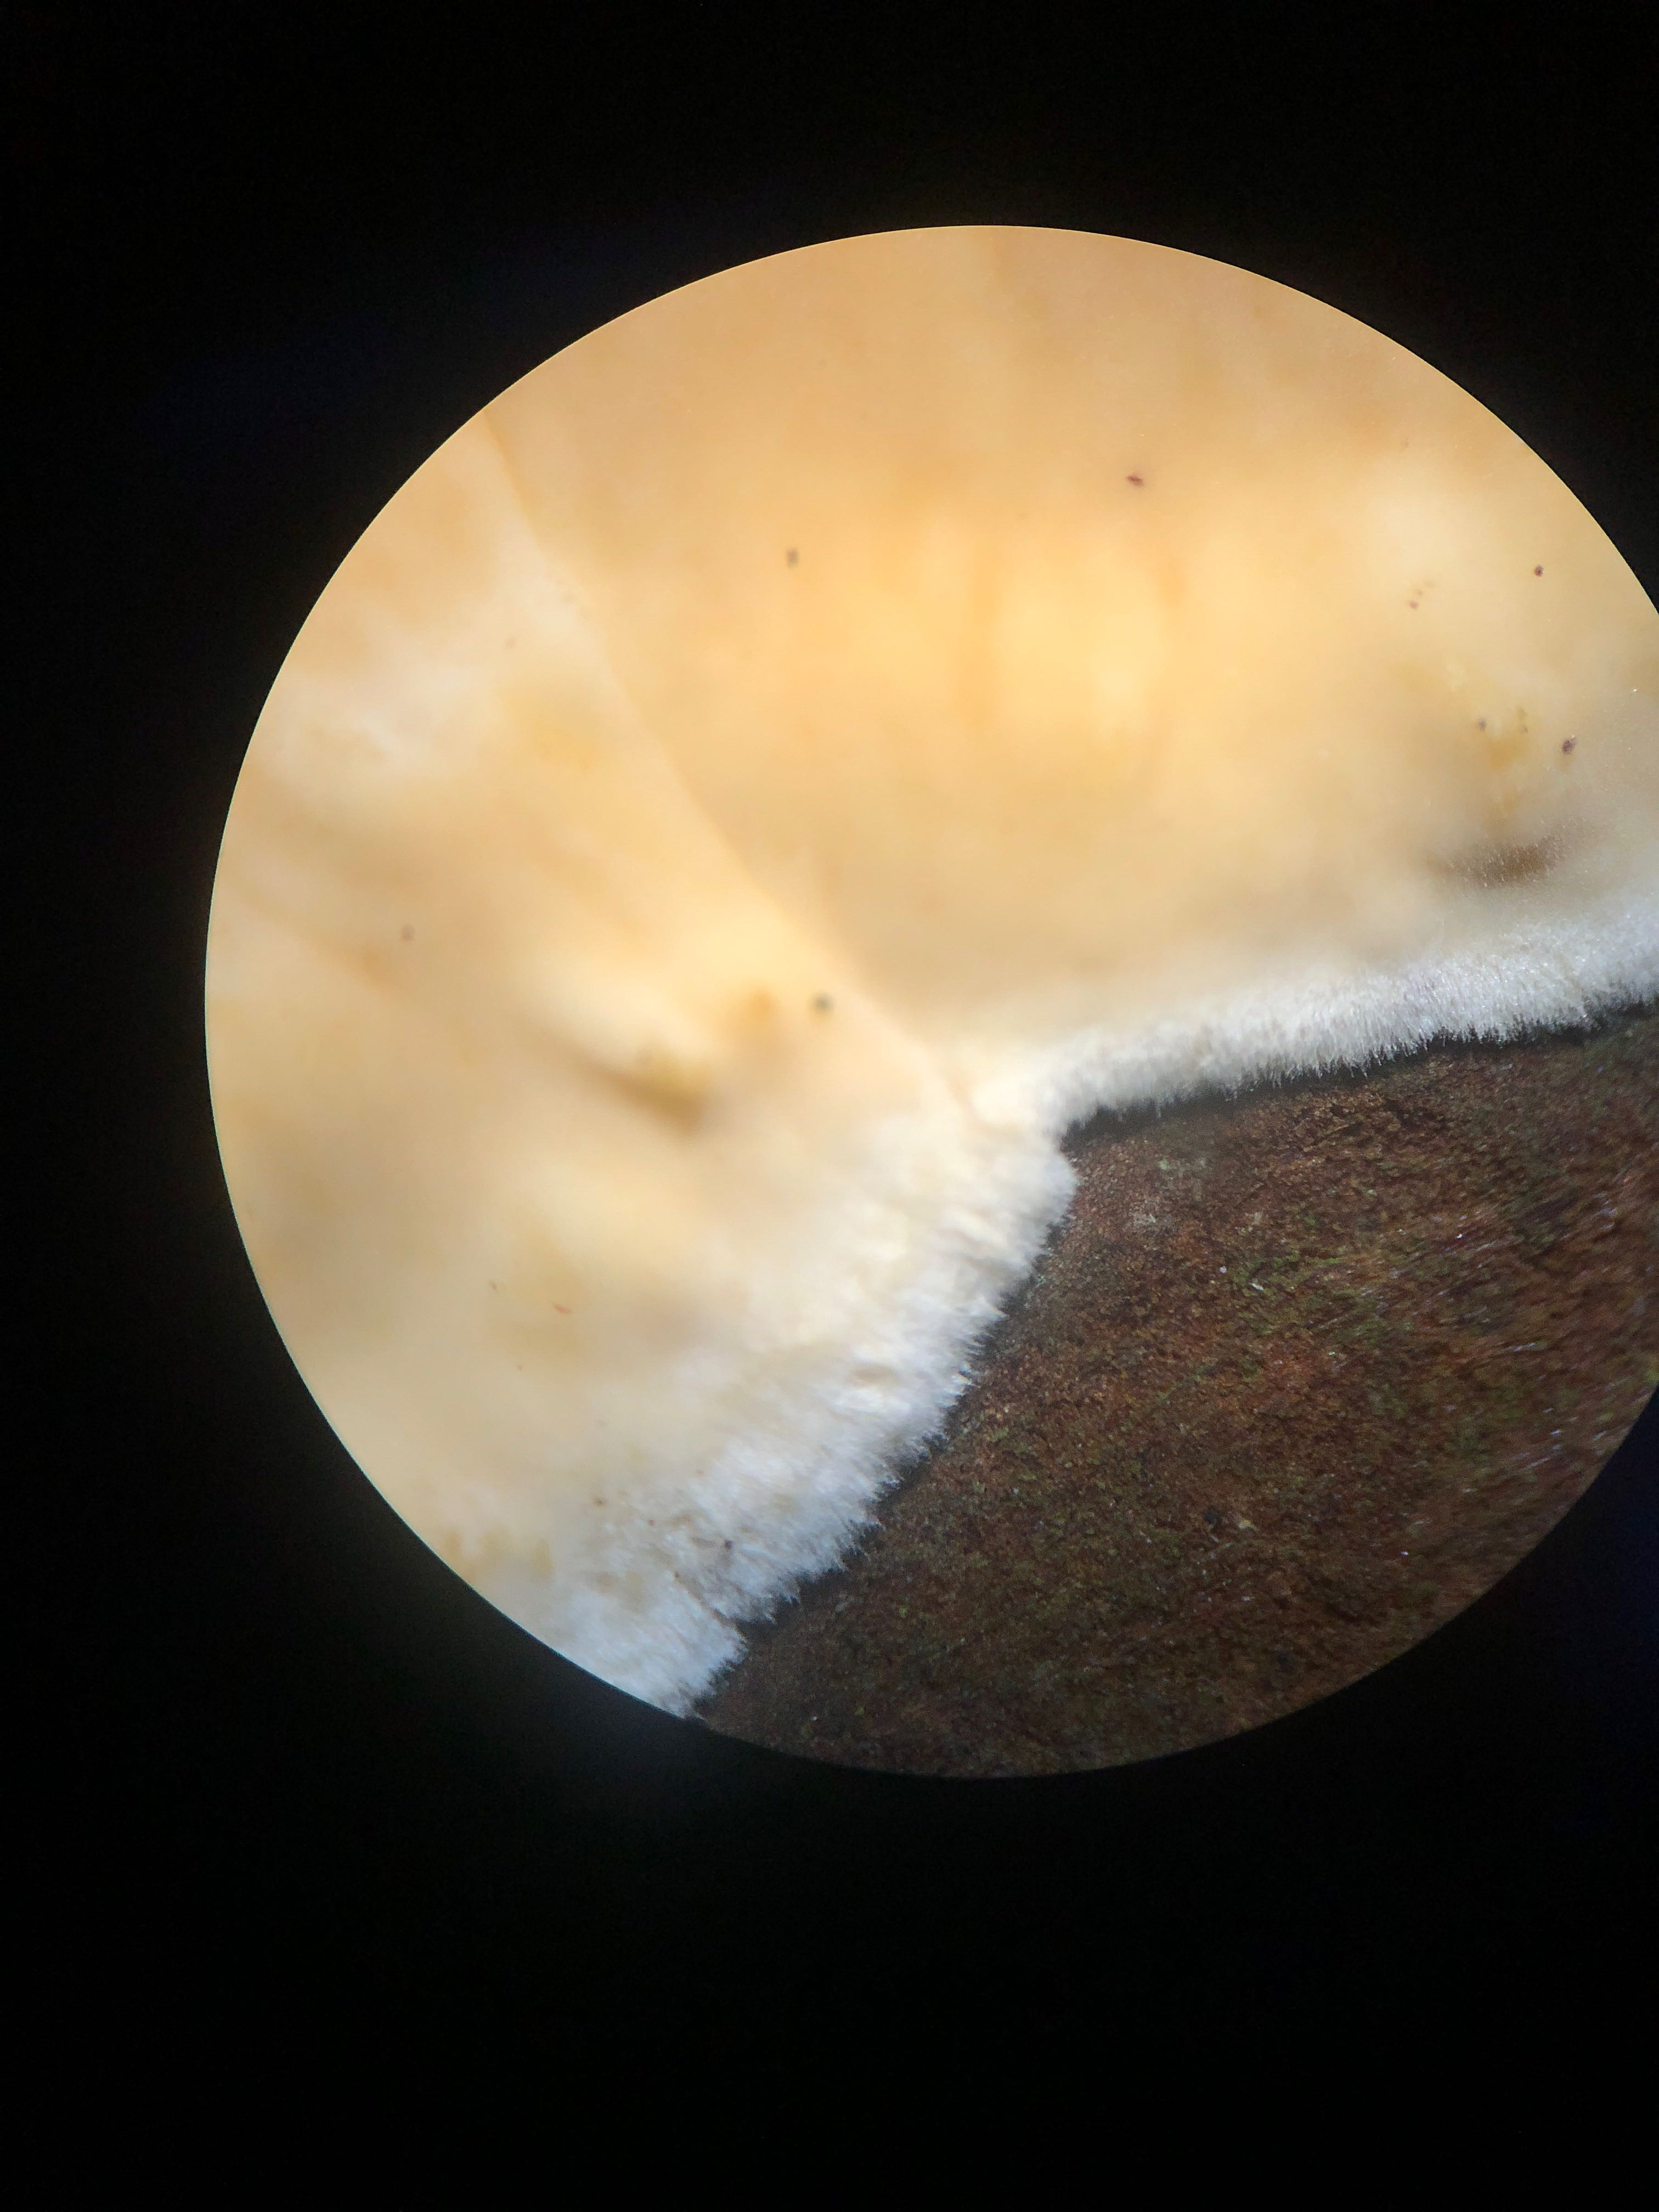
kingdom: Fungi
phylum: Basidiomycota
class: Agaricomycetes
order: Polyporales
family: Dacryobolaceae
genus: Dacryobolus
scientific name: Dacryobolus karstenii
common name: glat vulkanskorpe
